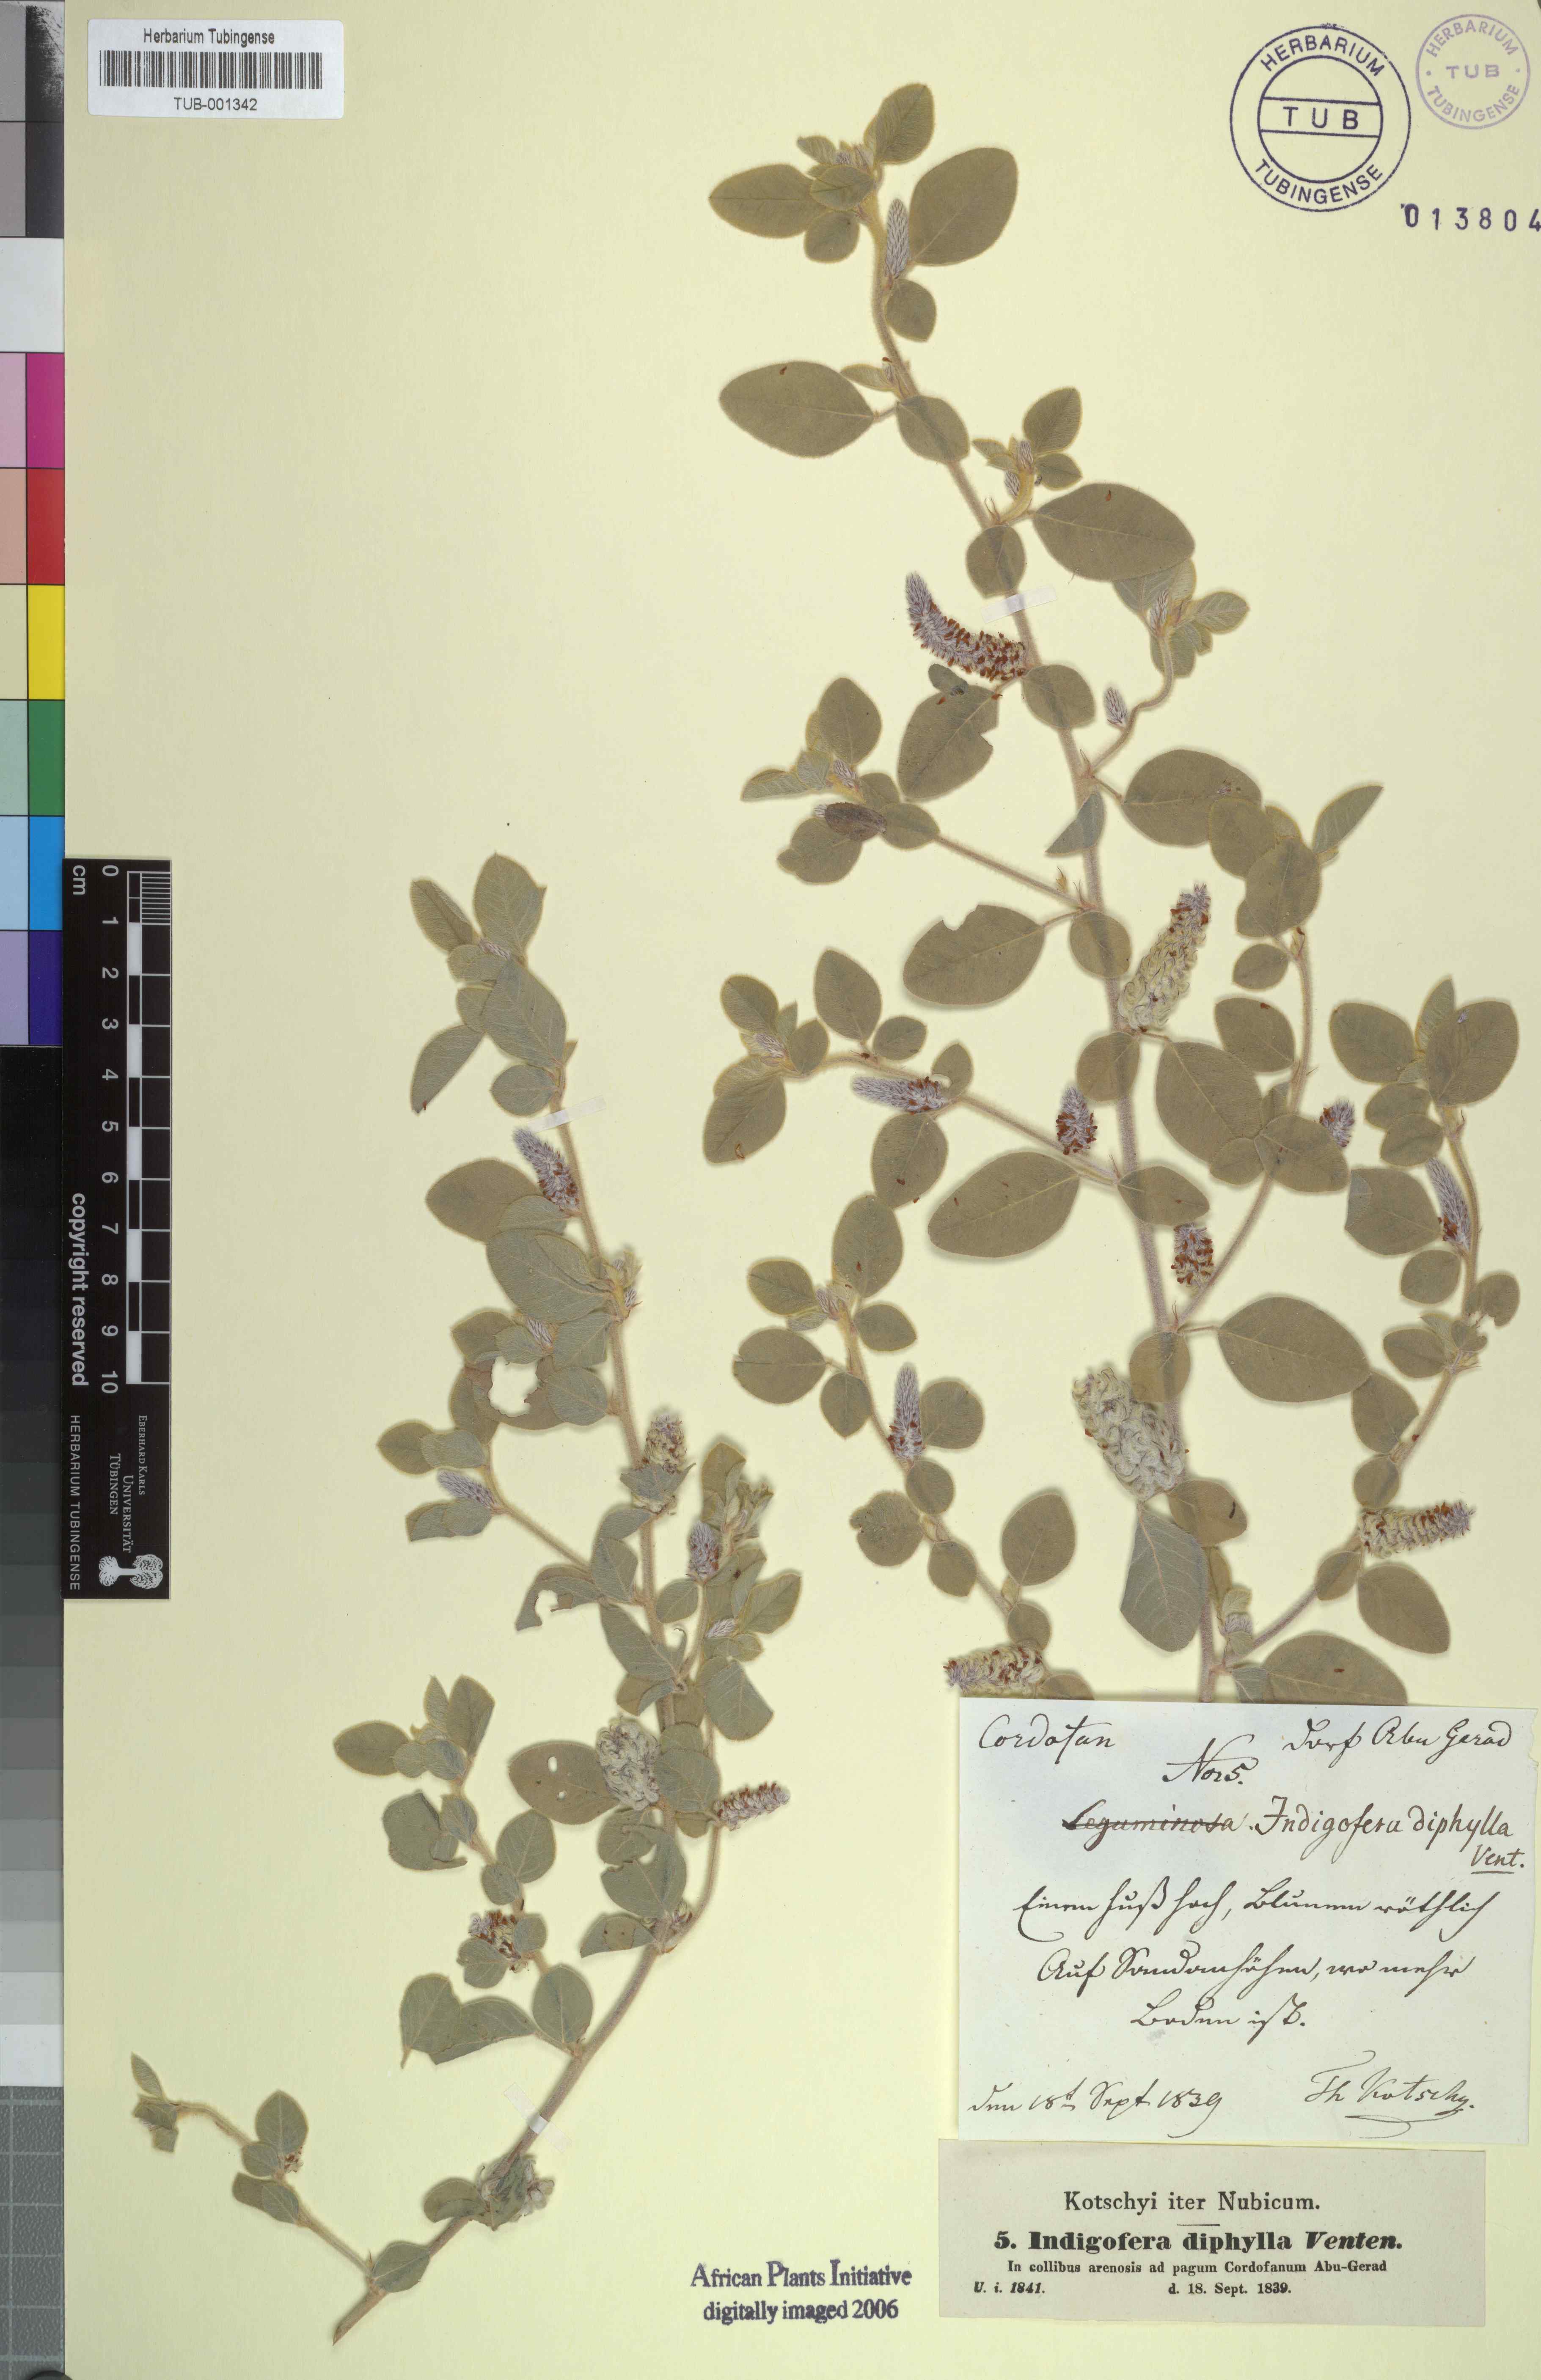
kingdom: Plantae
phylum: Tracheophyta
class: Magnoliopsida
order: Fabales
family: Fabaceae
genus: Indigofera
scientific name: Indigofera diphylla
